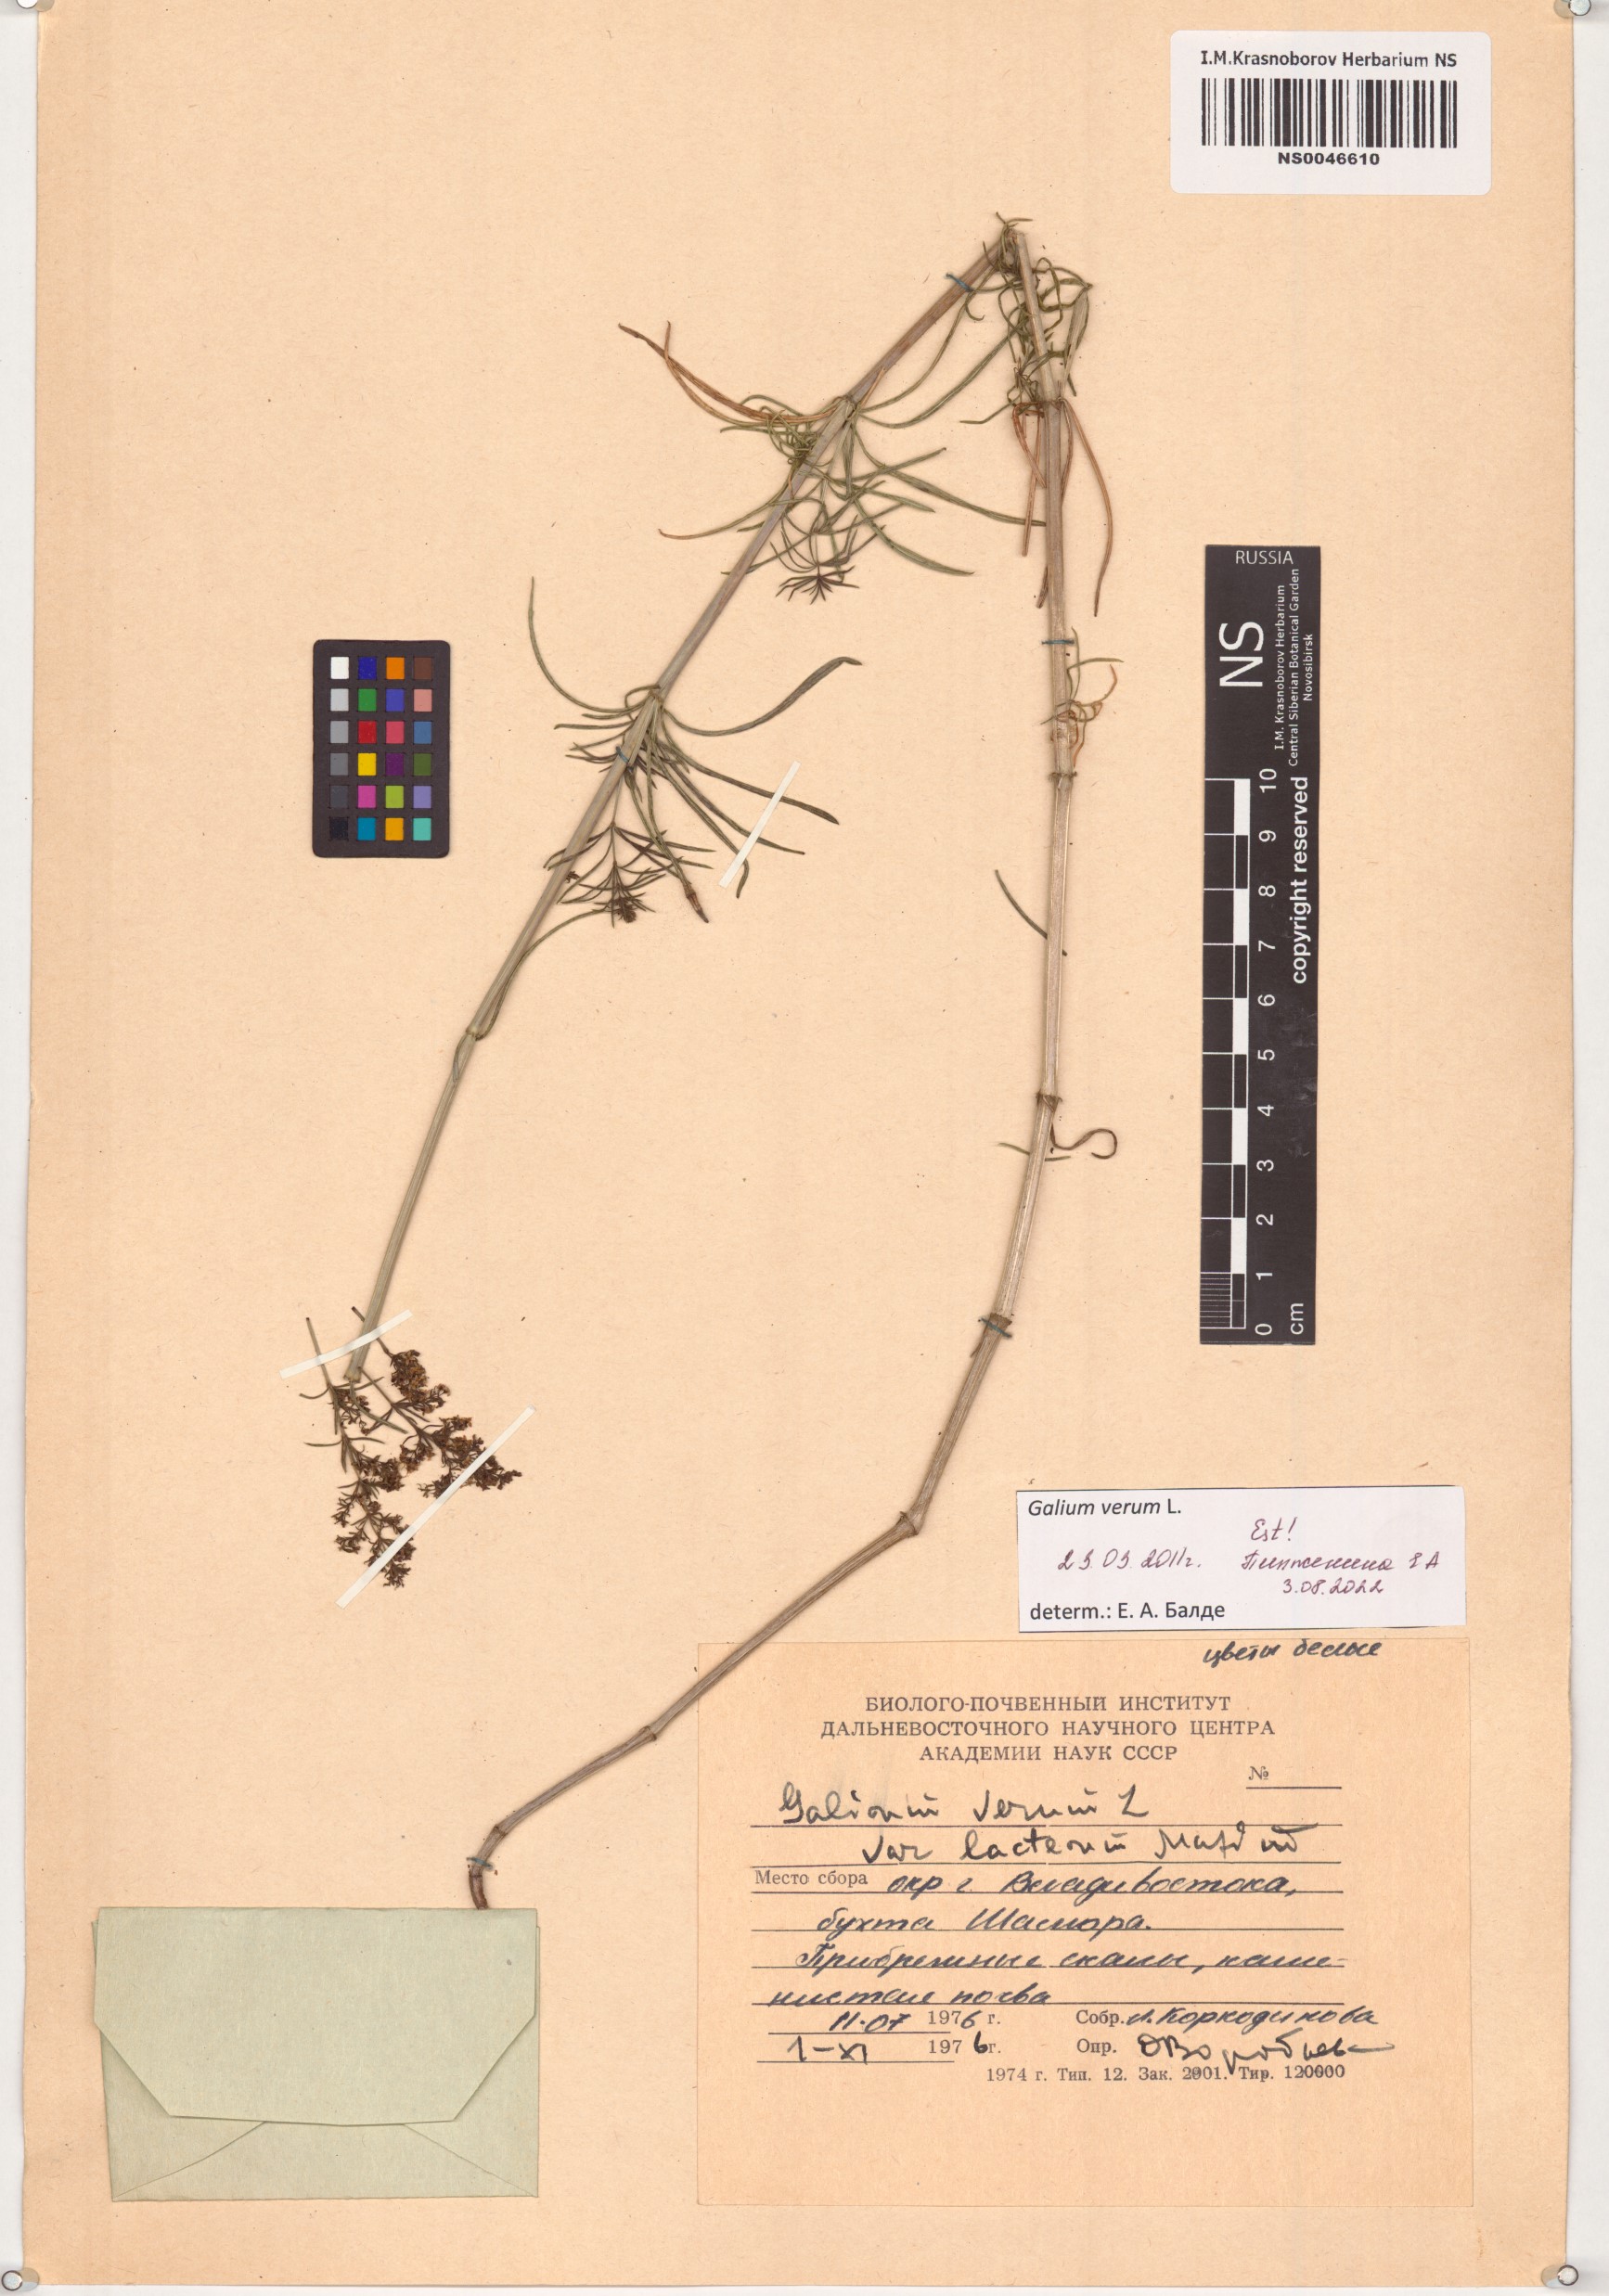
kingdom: Plantae
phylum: Tracheophyta
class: Magnoliopsida
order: Gentianales
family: Rubiaceae
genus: Galium
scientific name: Galium verum
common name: Lady's bedstraw
